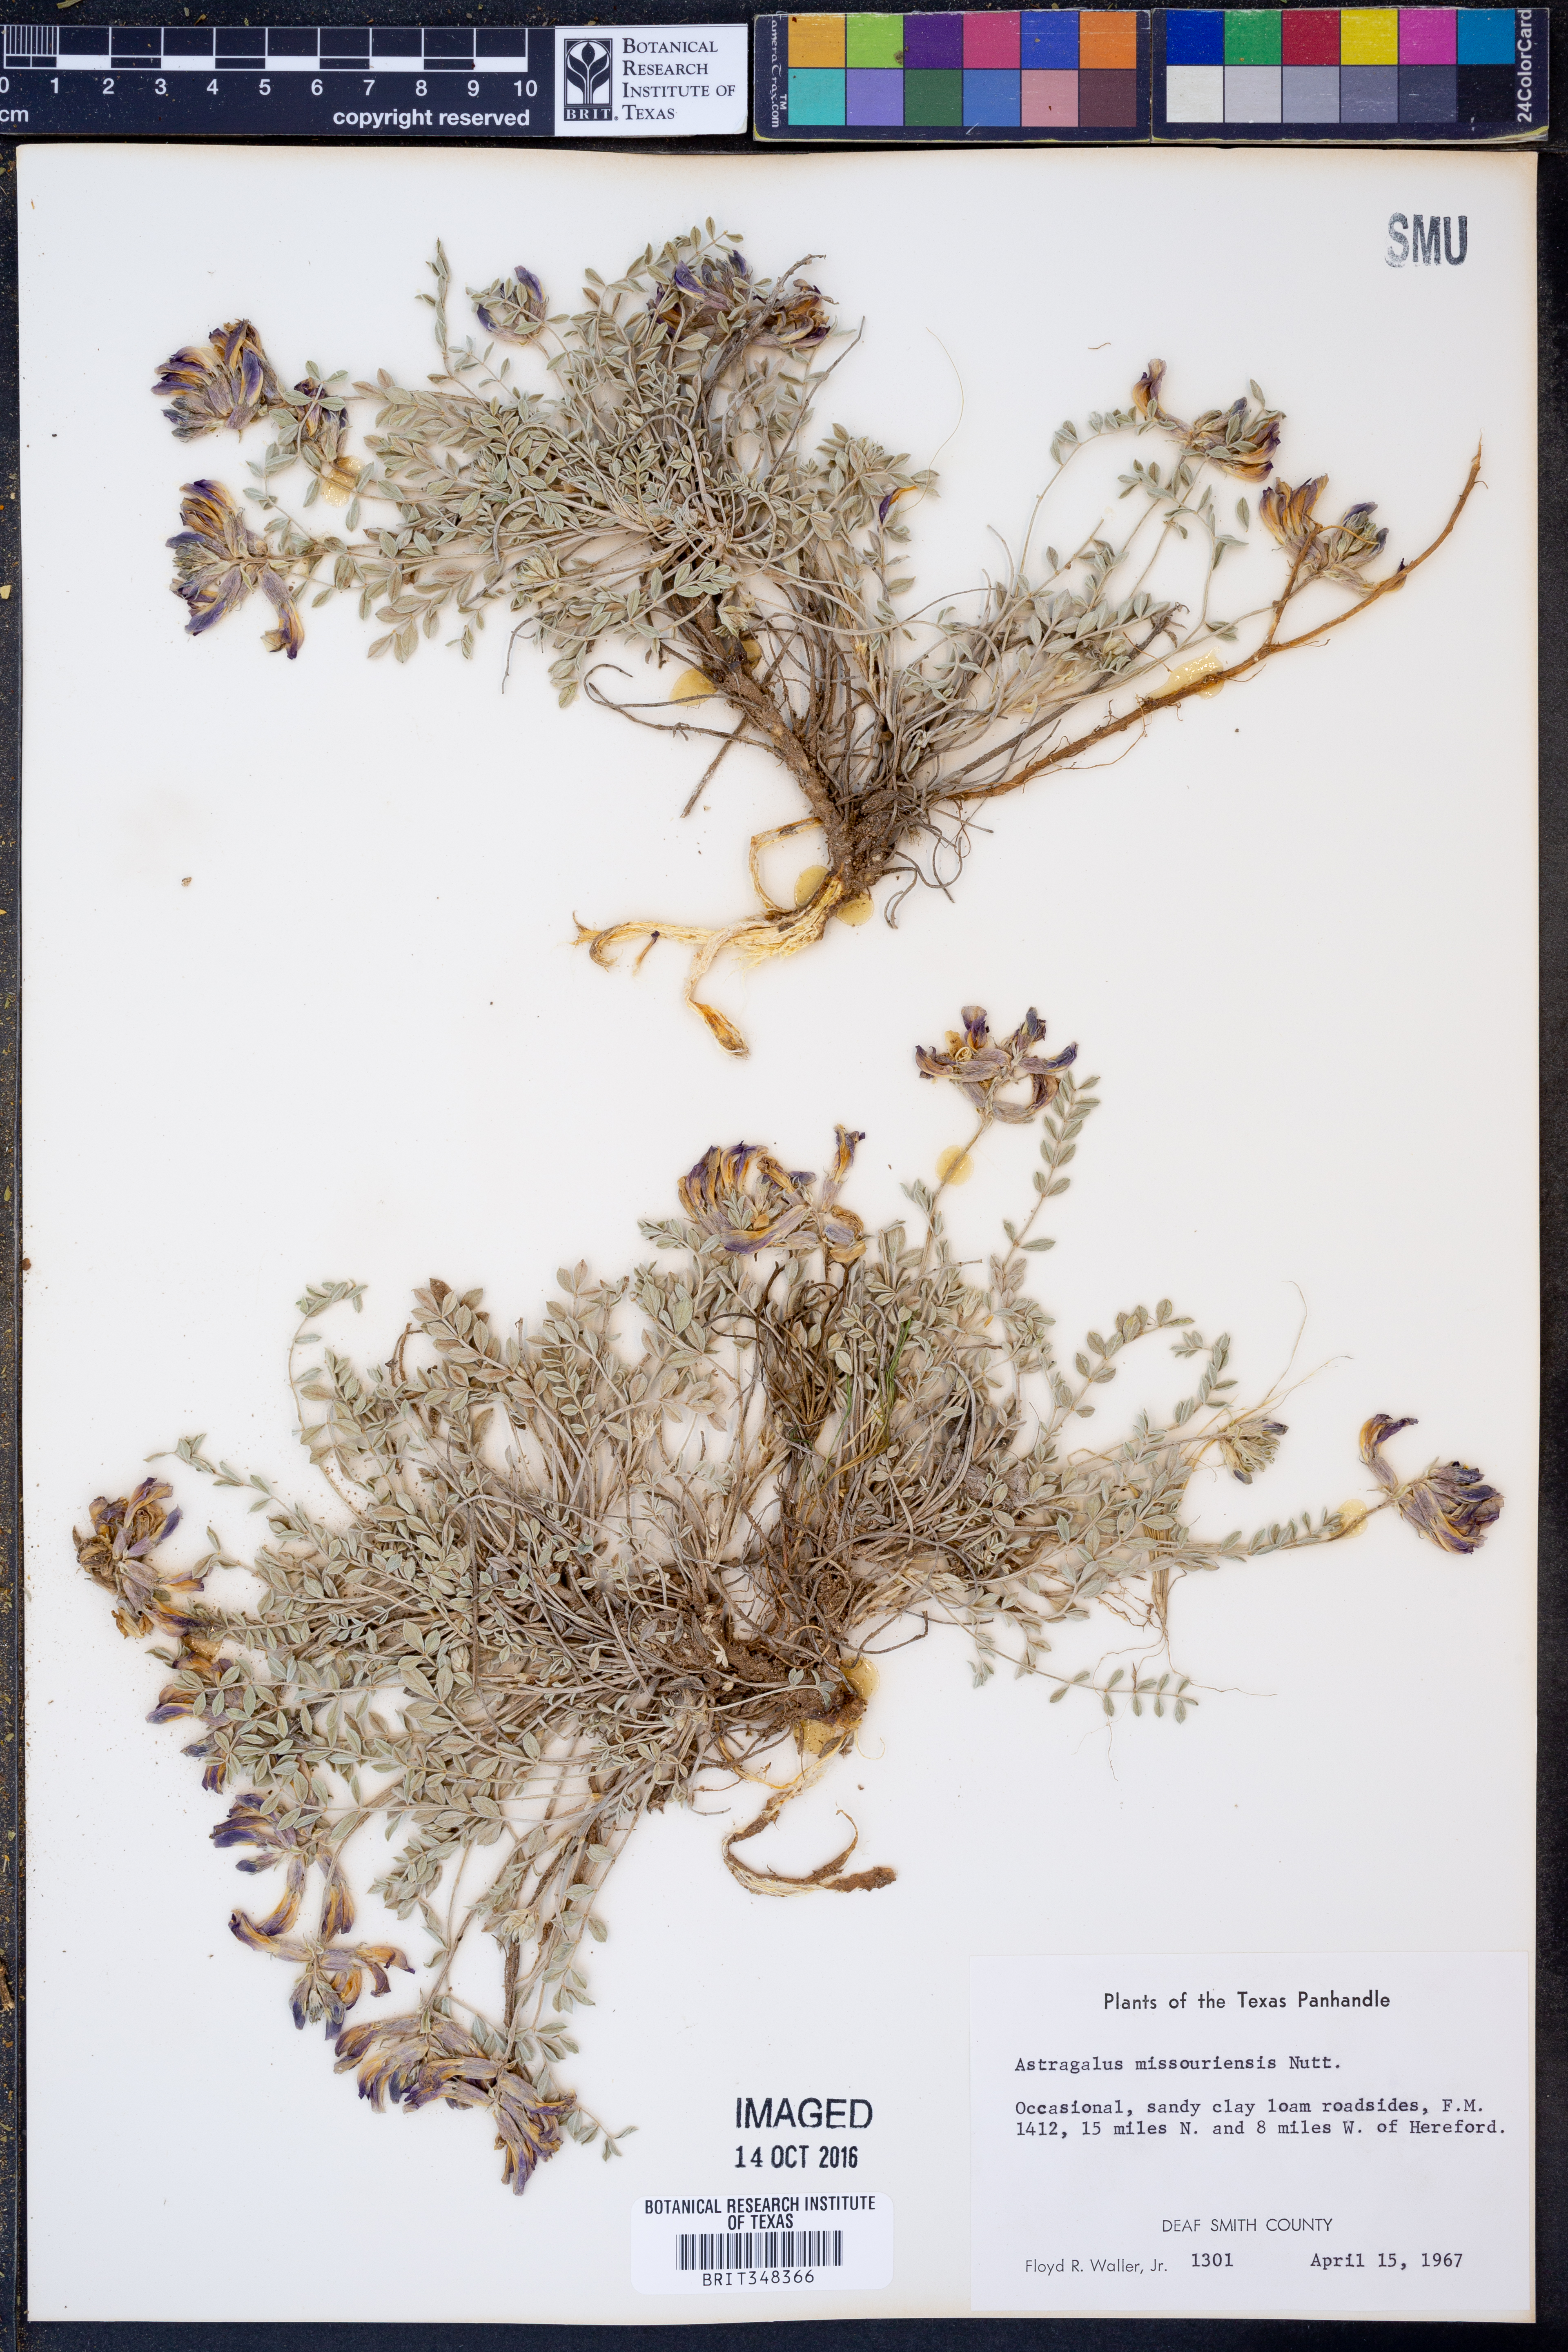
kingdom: Plantae
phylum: Tracheophyta
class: Magnoliopsida
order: Fabales
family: Fabaceae
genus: Astragalus
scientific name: Astragalus missouriensis
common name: Missouri milk-vetch
